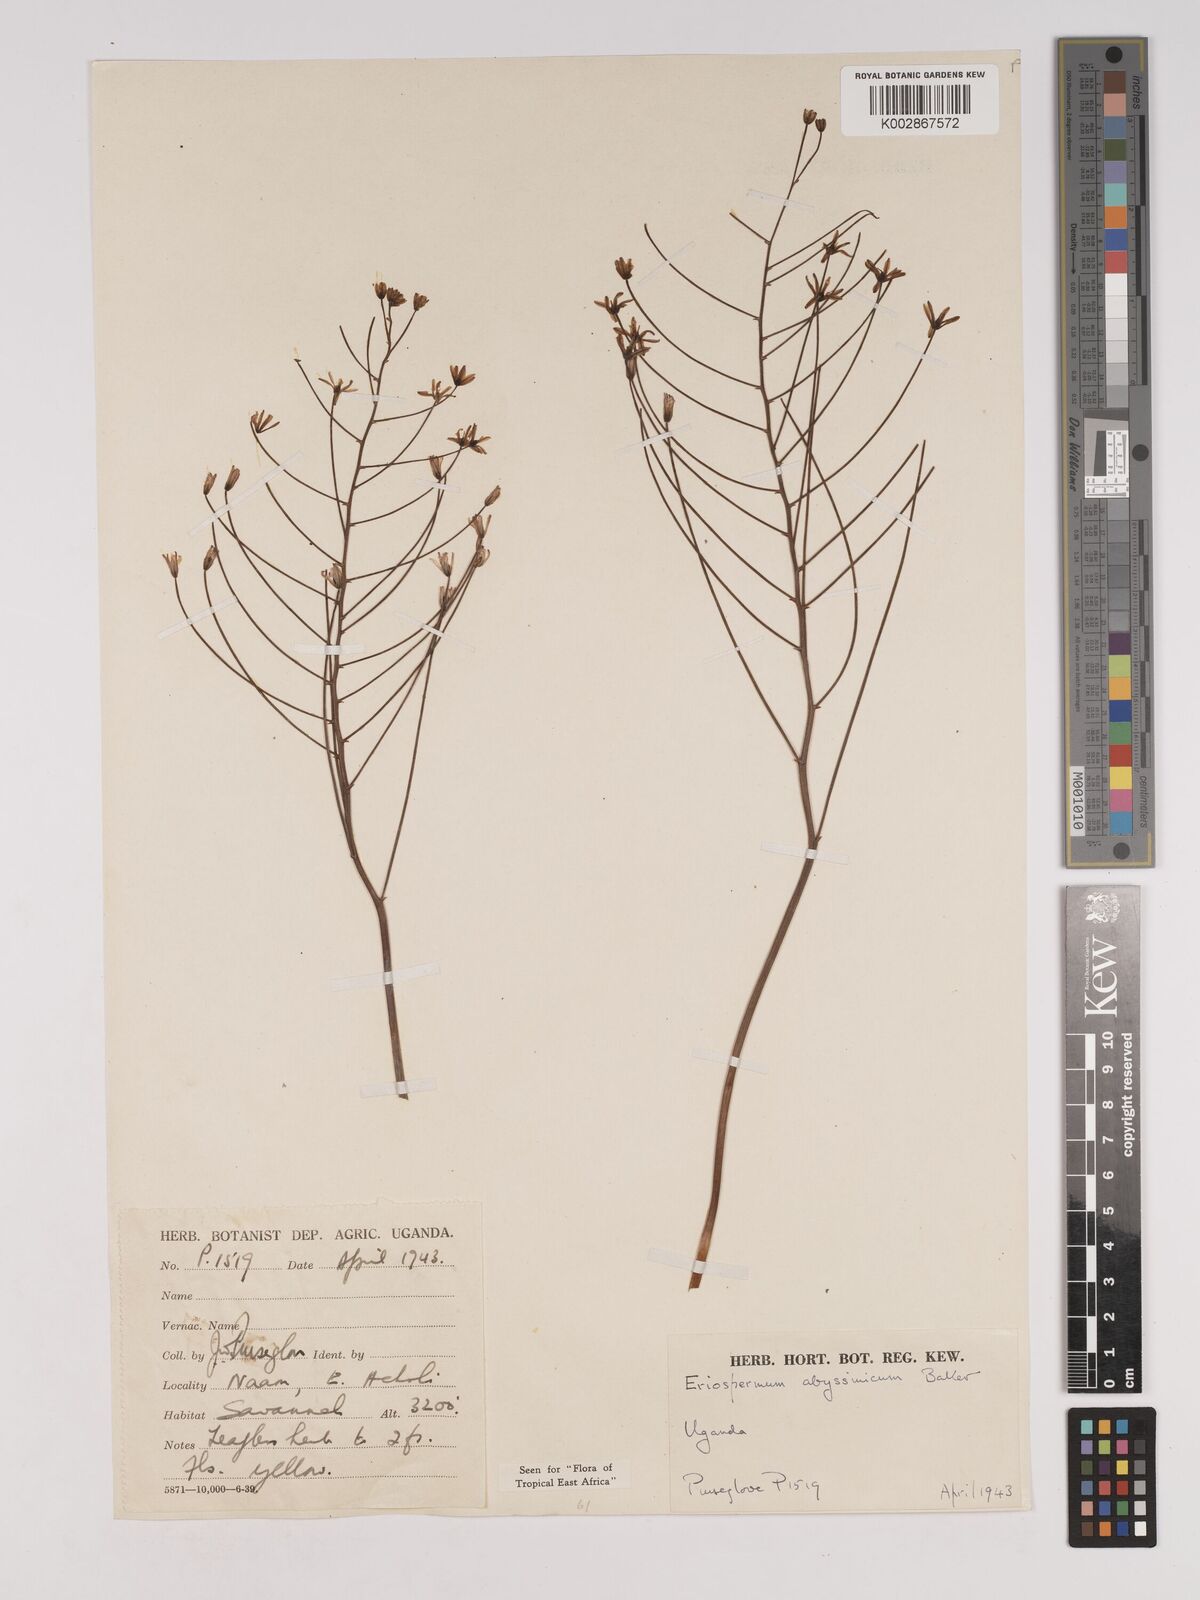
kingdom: Plantae
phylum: Tracheophyta
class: Liliopsida
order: Asparagales
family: Asparagaceae
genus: Eriospermum
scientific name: Eriospermum abyssinicum
